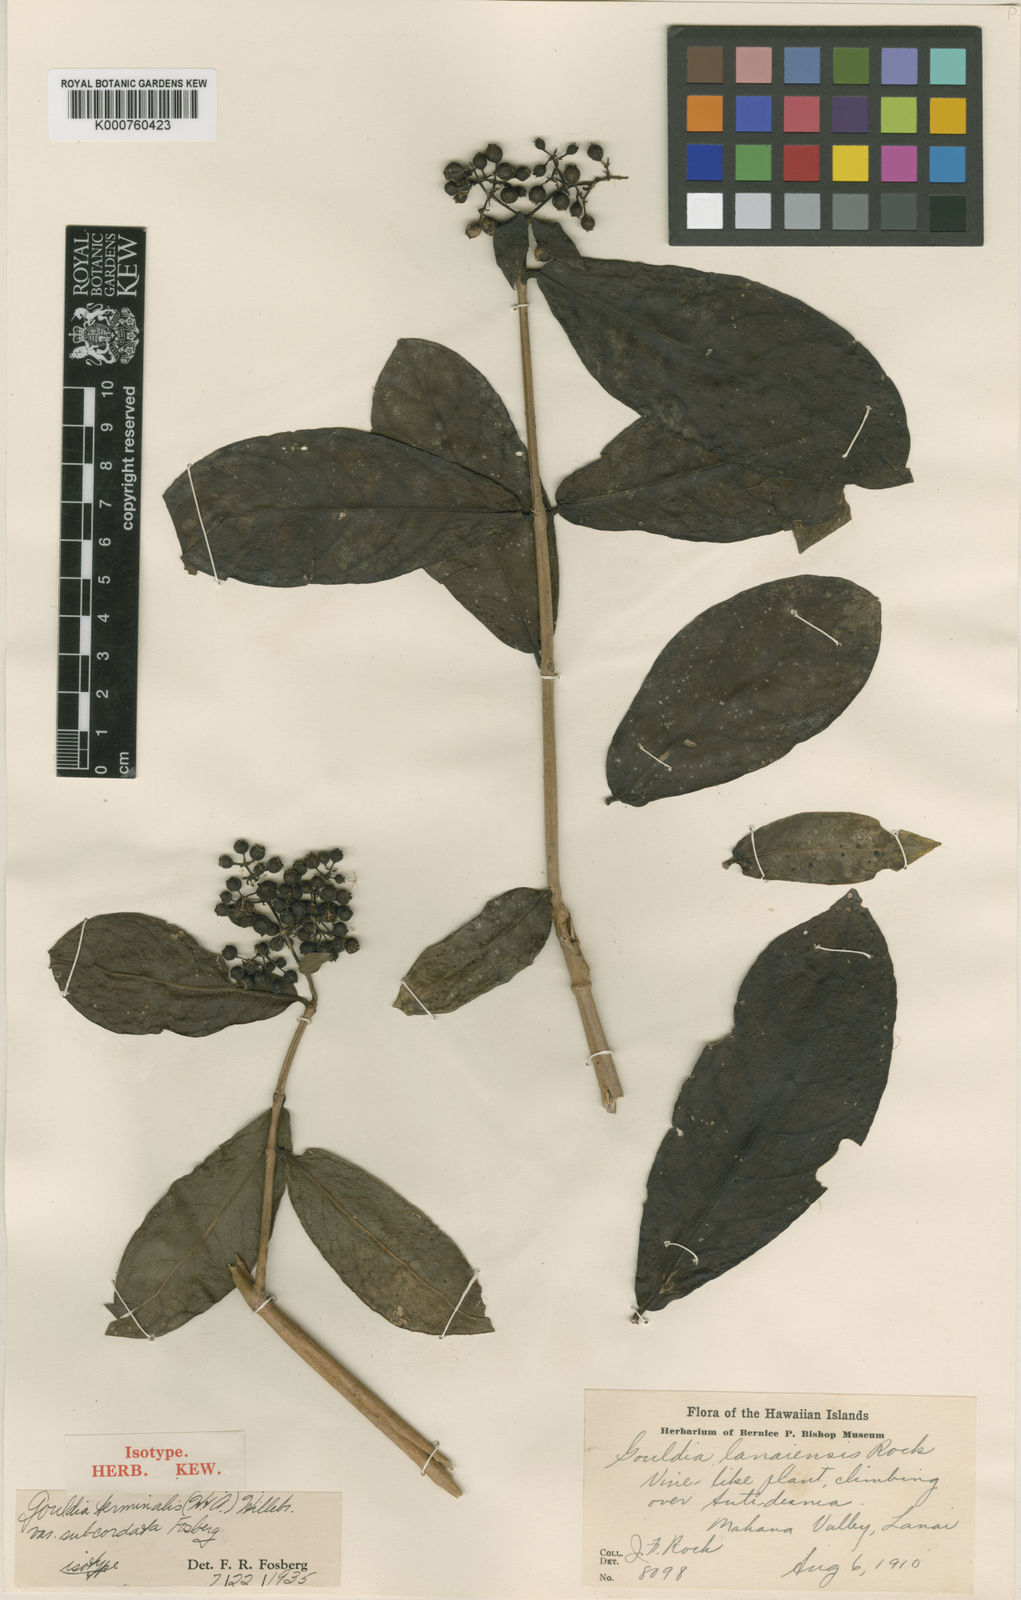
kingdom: Plantae
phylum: Tracheophyta
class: Magnoliopsida
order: Gentianales
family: Rubiaceae
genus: Kadua
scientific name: Kadua affinis
